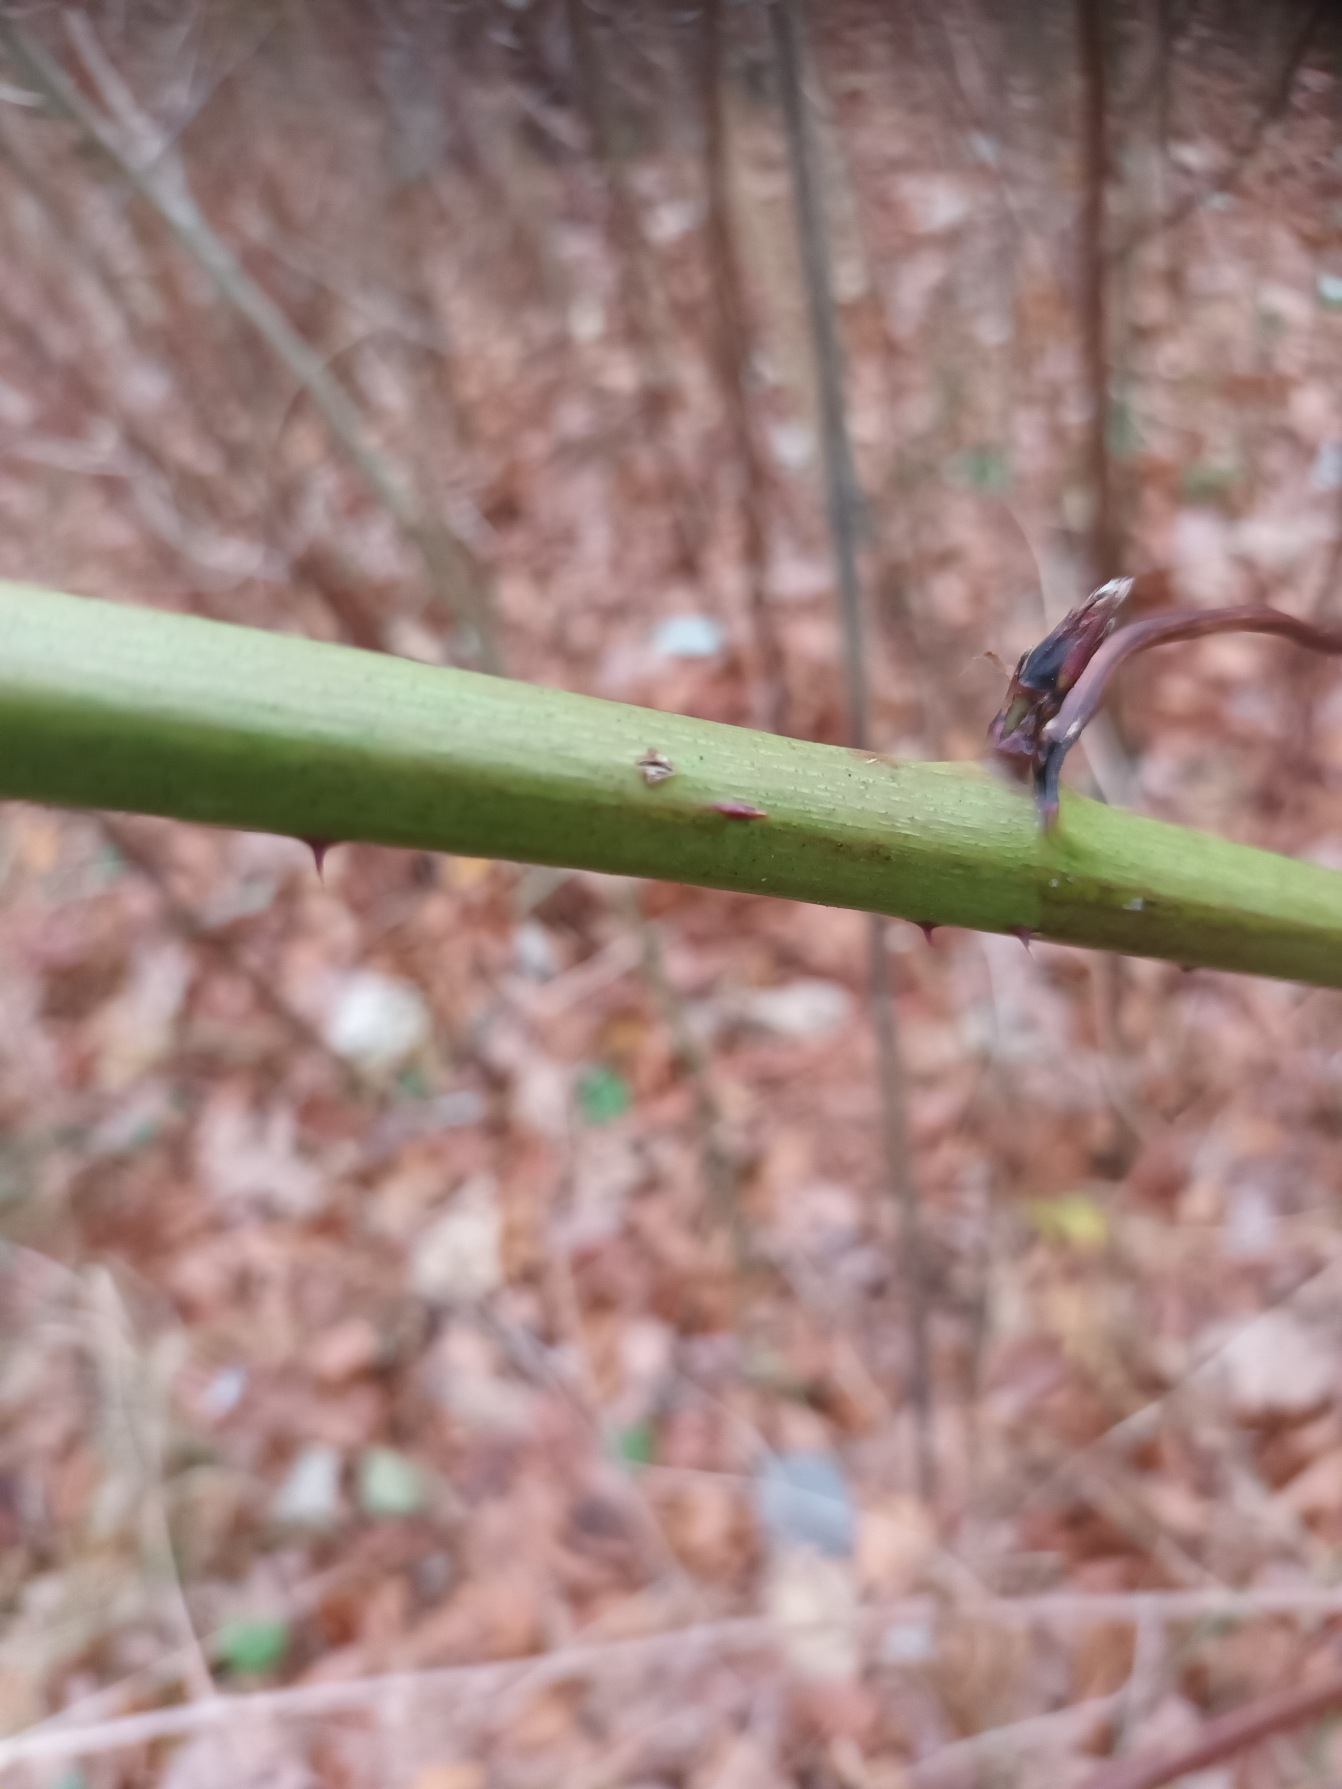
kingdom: Plantae
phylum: Tracheophyta
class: Magnoliopsida
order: Rosales
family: Rosaceae
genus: Rubus
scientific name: Rubus polonicus
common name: Skov-brombær
